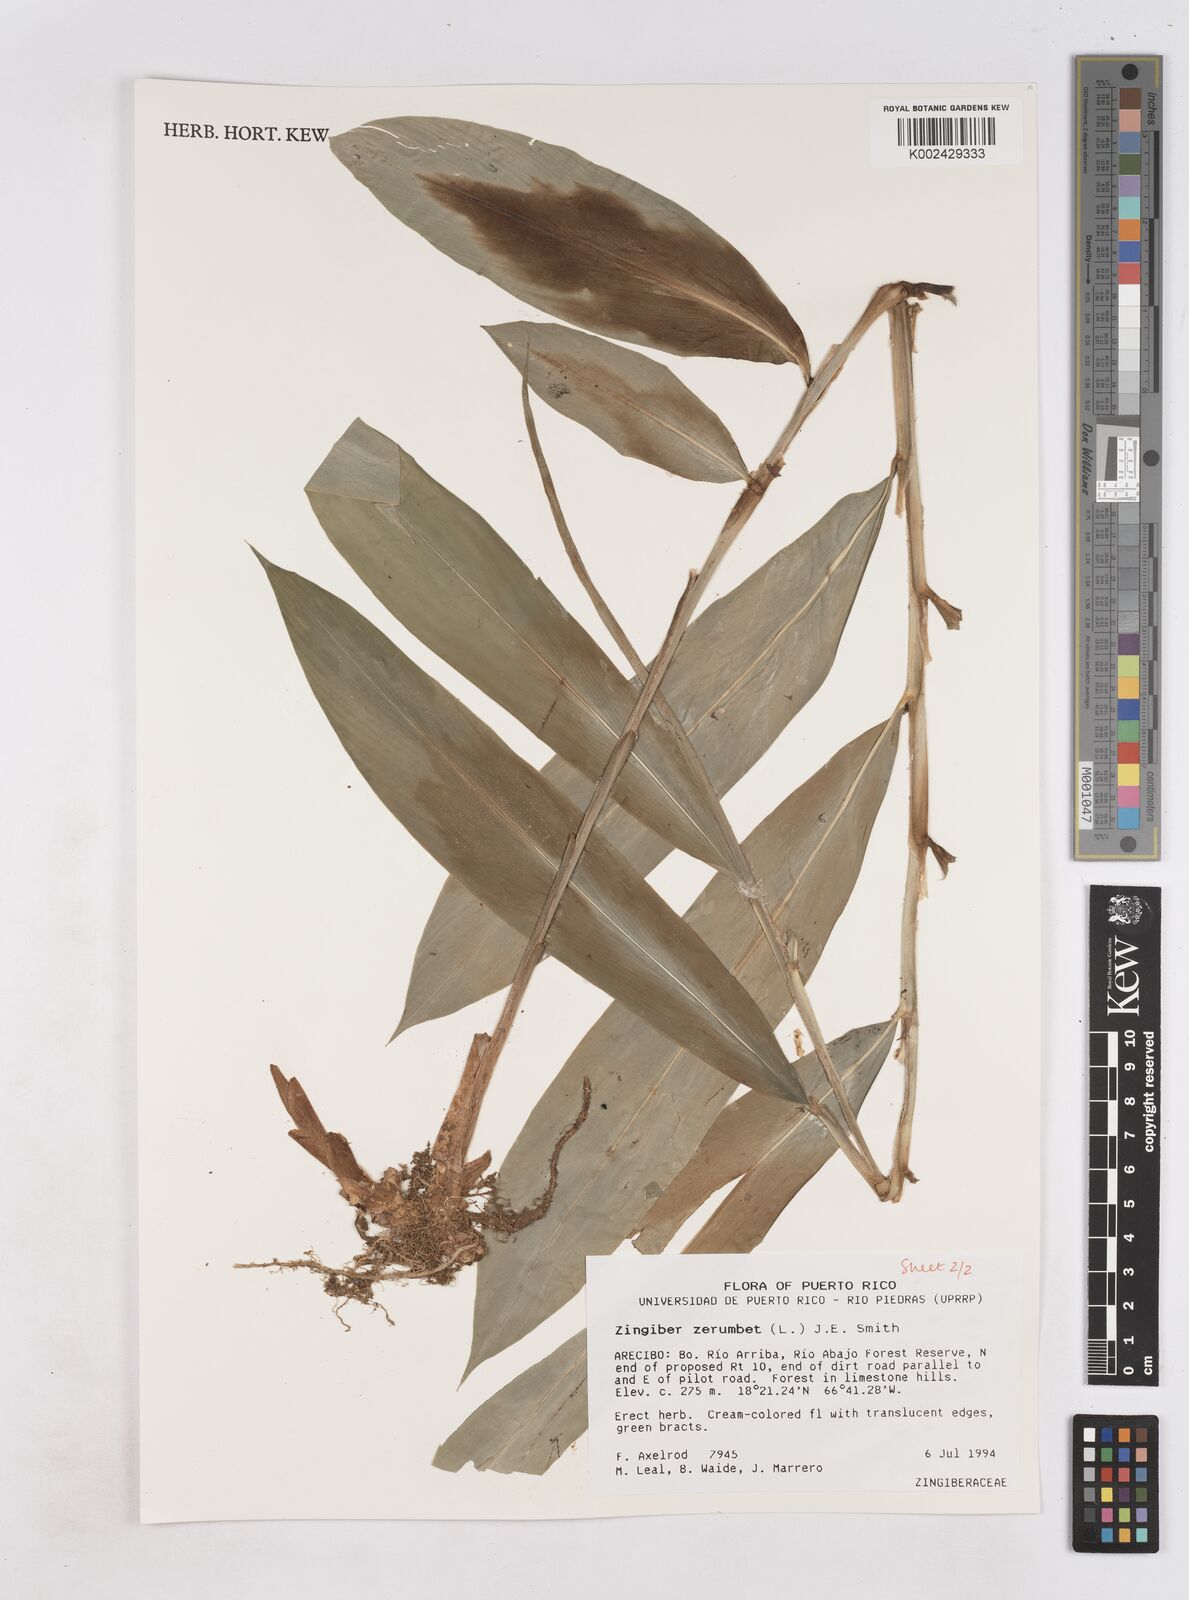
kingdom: Plantae
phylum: Tracheophyta
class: Liliopsida
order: Zingiberales
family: Zingiberaceae
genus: Zingiber
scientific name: Zingiber zerumbet
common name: Bitter ginger
